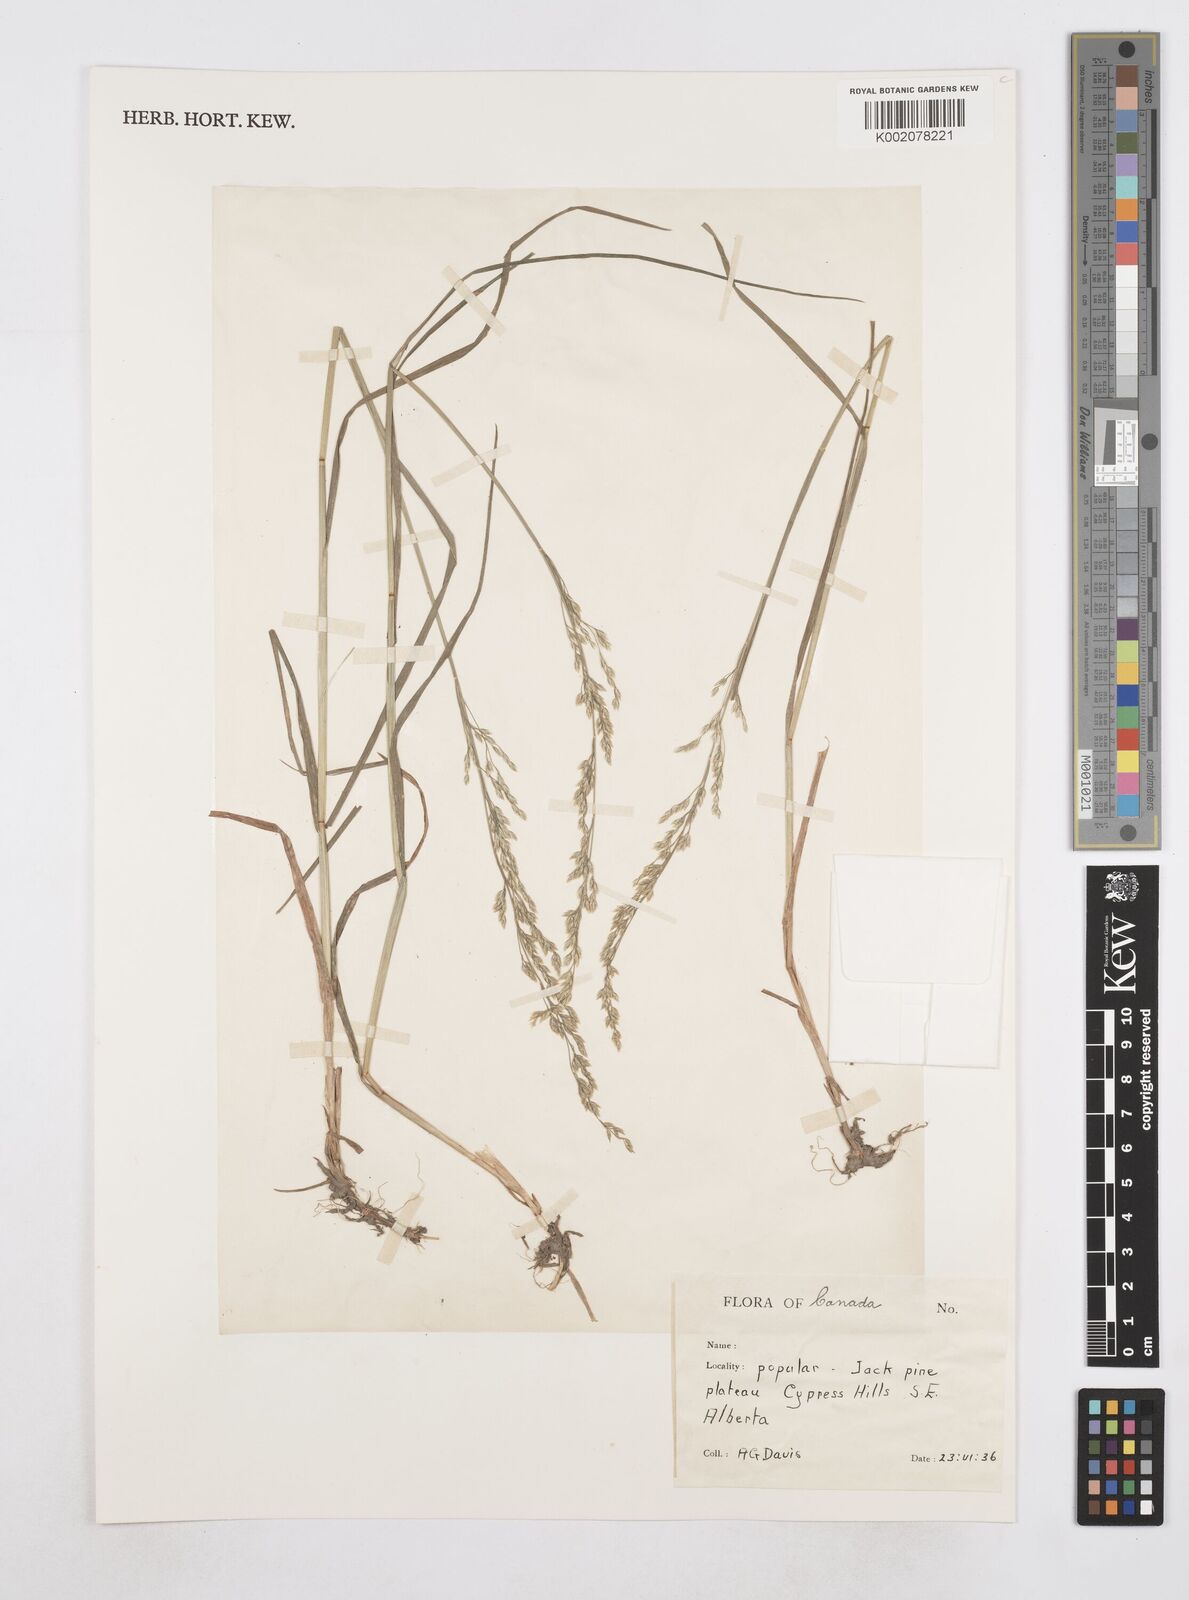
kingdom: Plantae
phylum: Tracheophyta
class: Liliopsida
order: Poales
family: Poaceae
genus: Poa
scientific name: Poa
